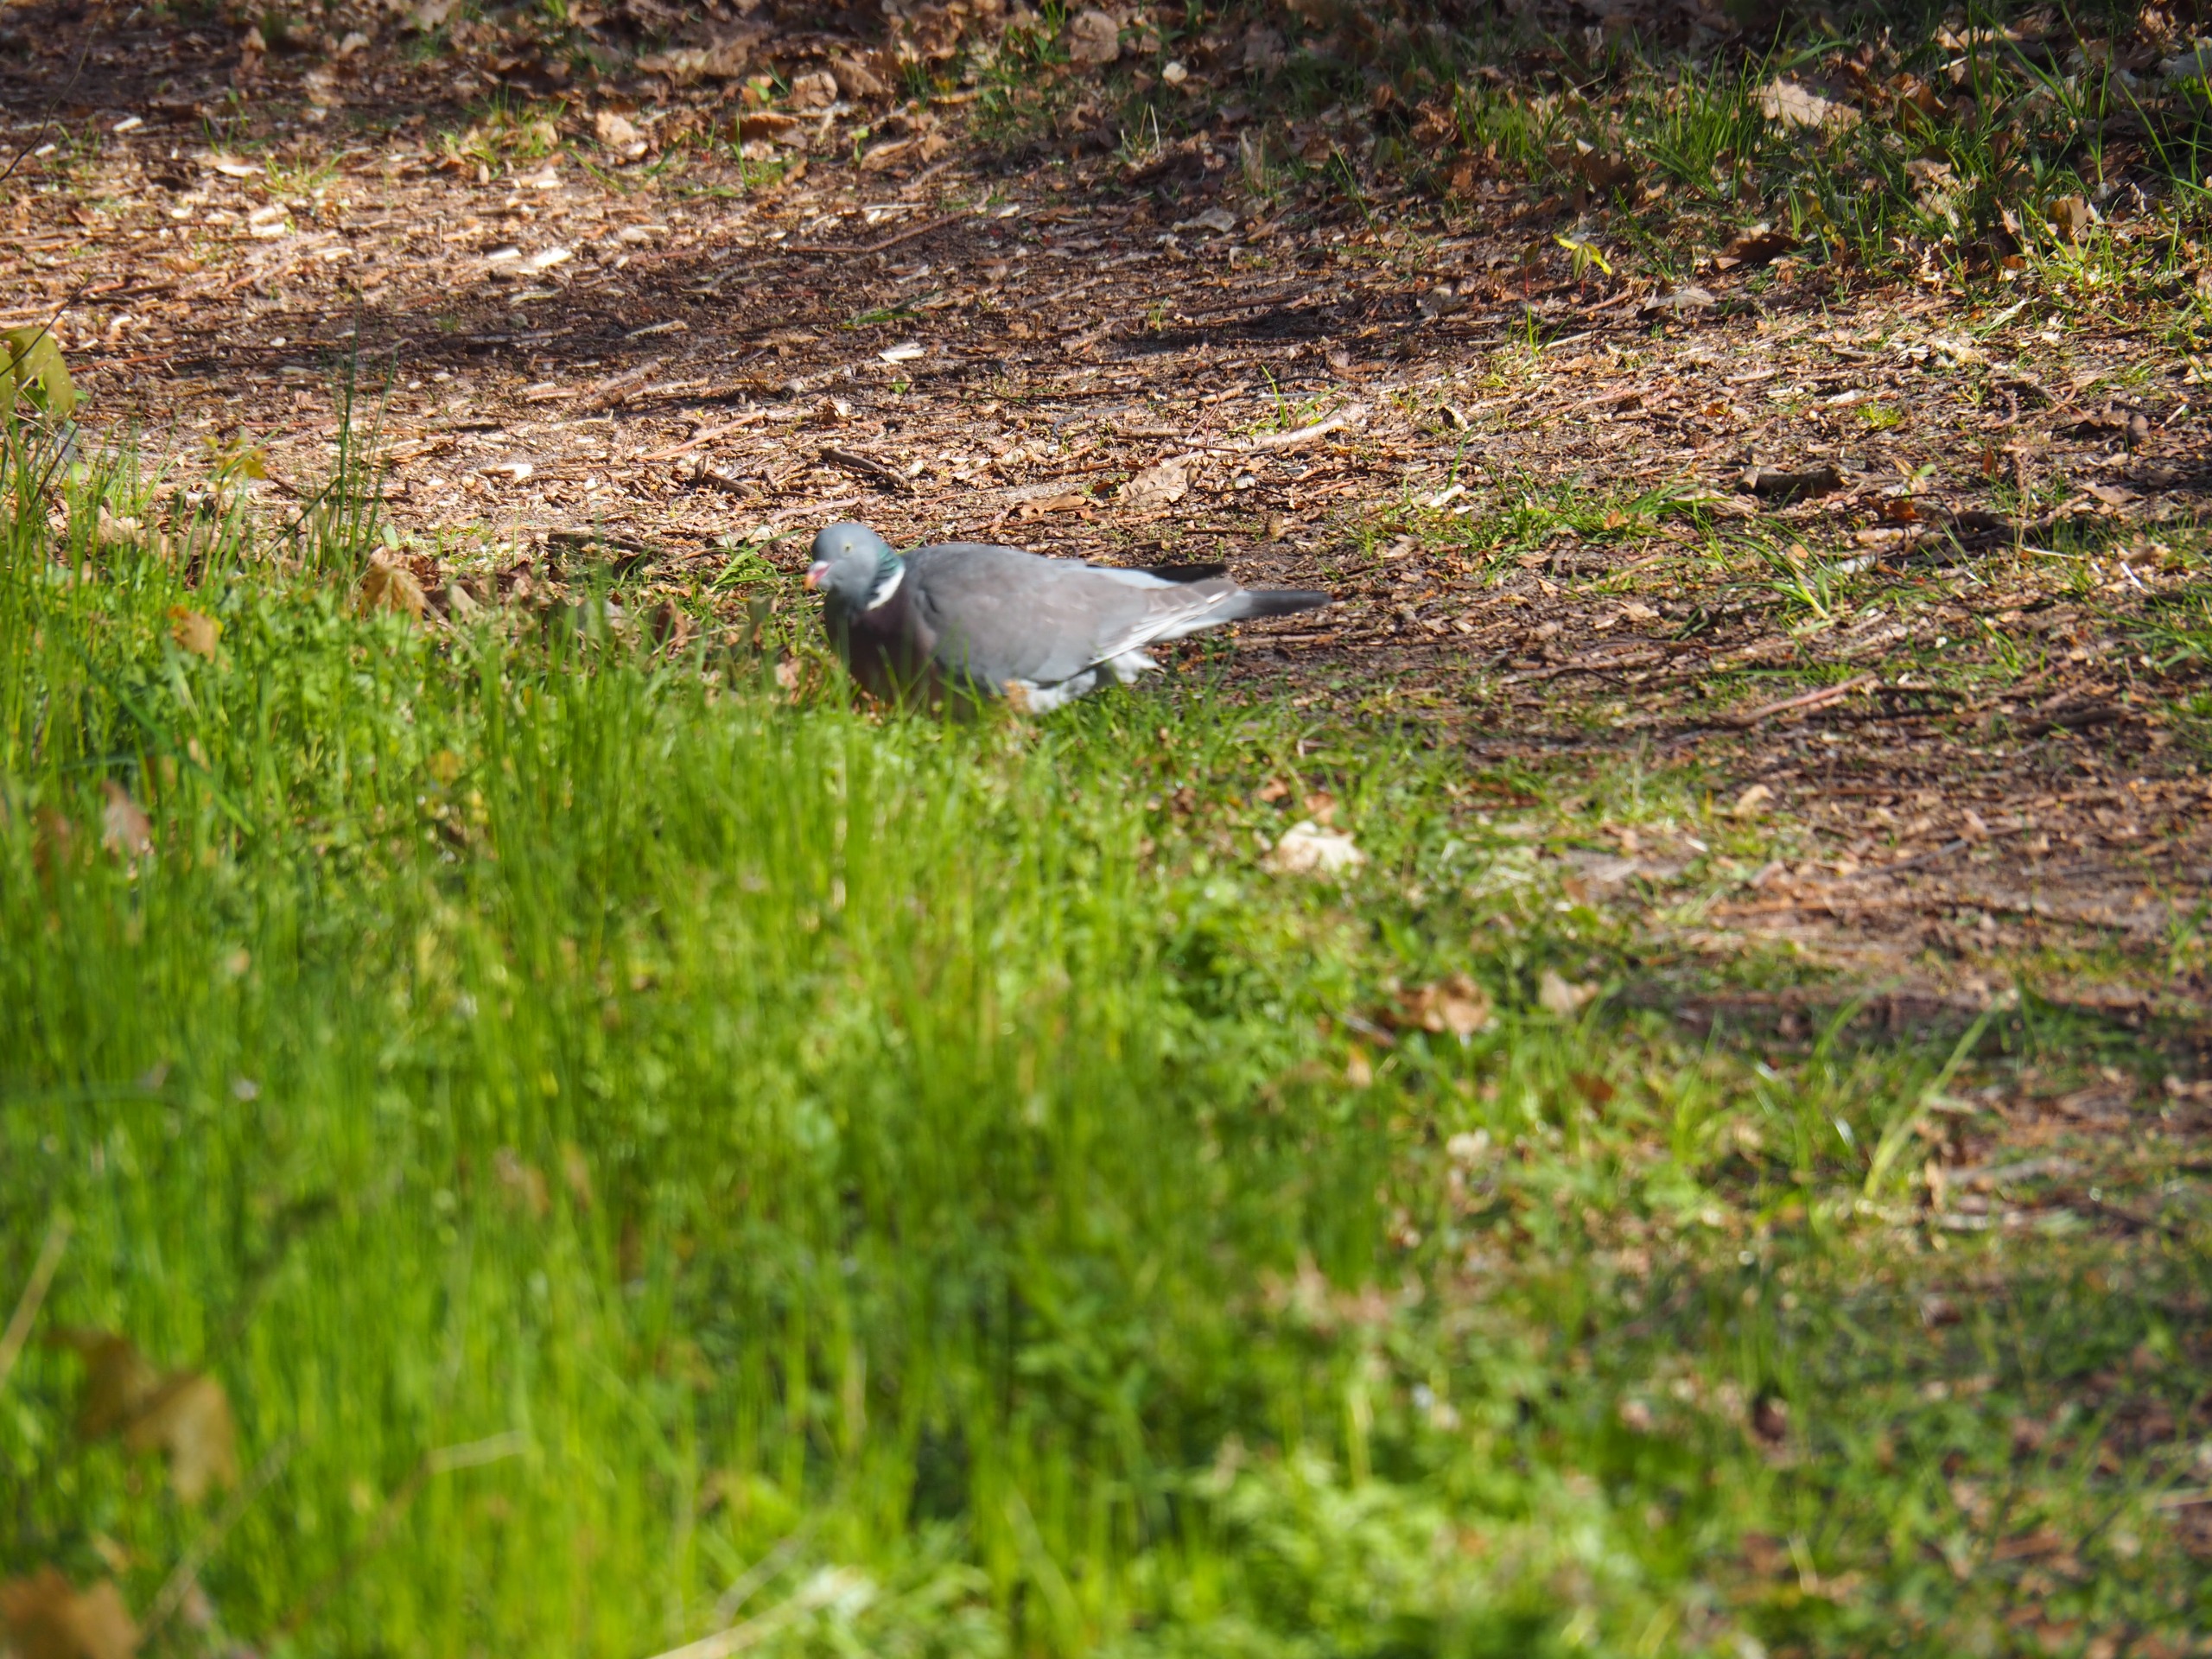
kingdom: Animalia
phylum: Chordata
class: Aves
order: Columbiformes
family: Columbidae
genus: Columba
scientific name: Columba palumbus
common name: Ringdue
